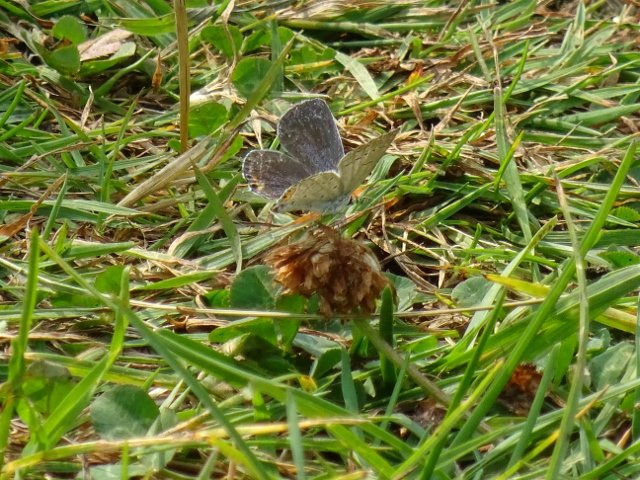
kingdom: Animalia
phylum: Arthropoda
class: Insecta
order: Lepidoptera
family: Lycaenidae
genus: Elkalyce
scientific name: Elkalyce comyntas
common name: Eastern Tailed-Blue
